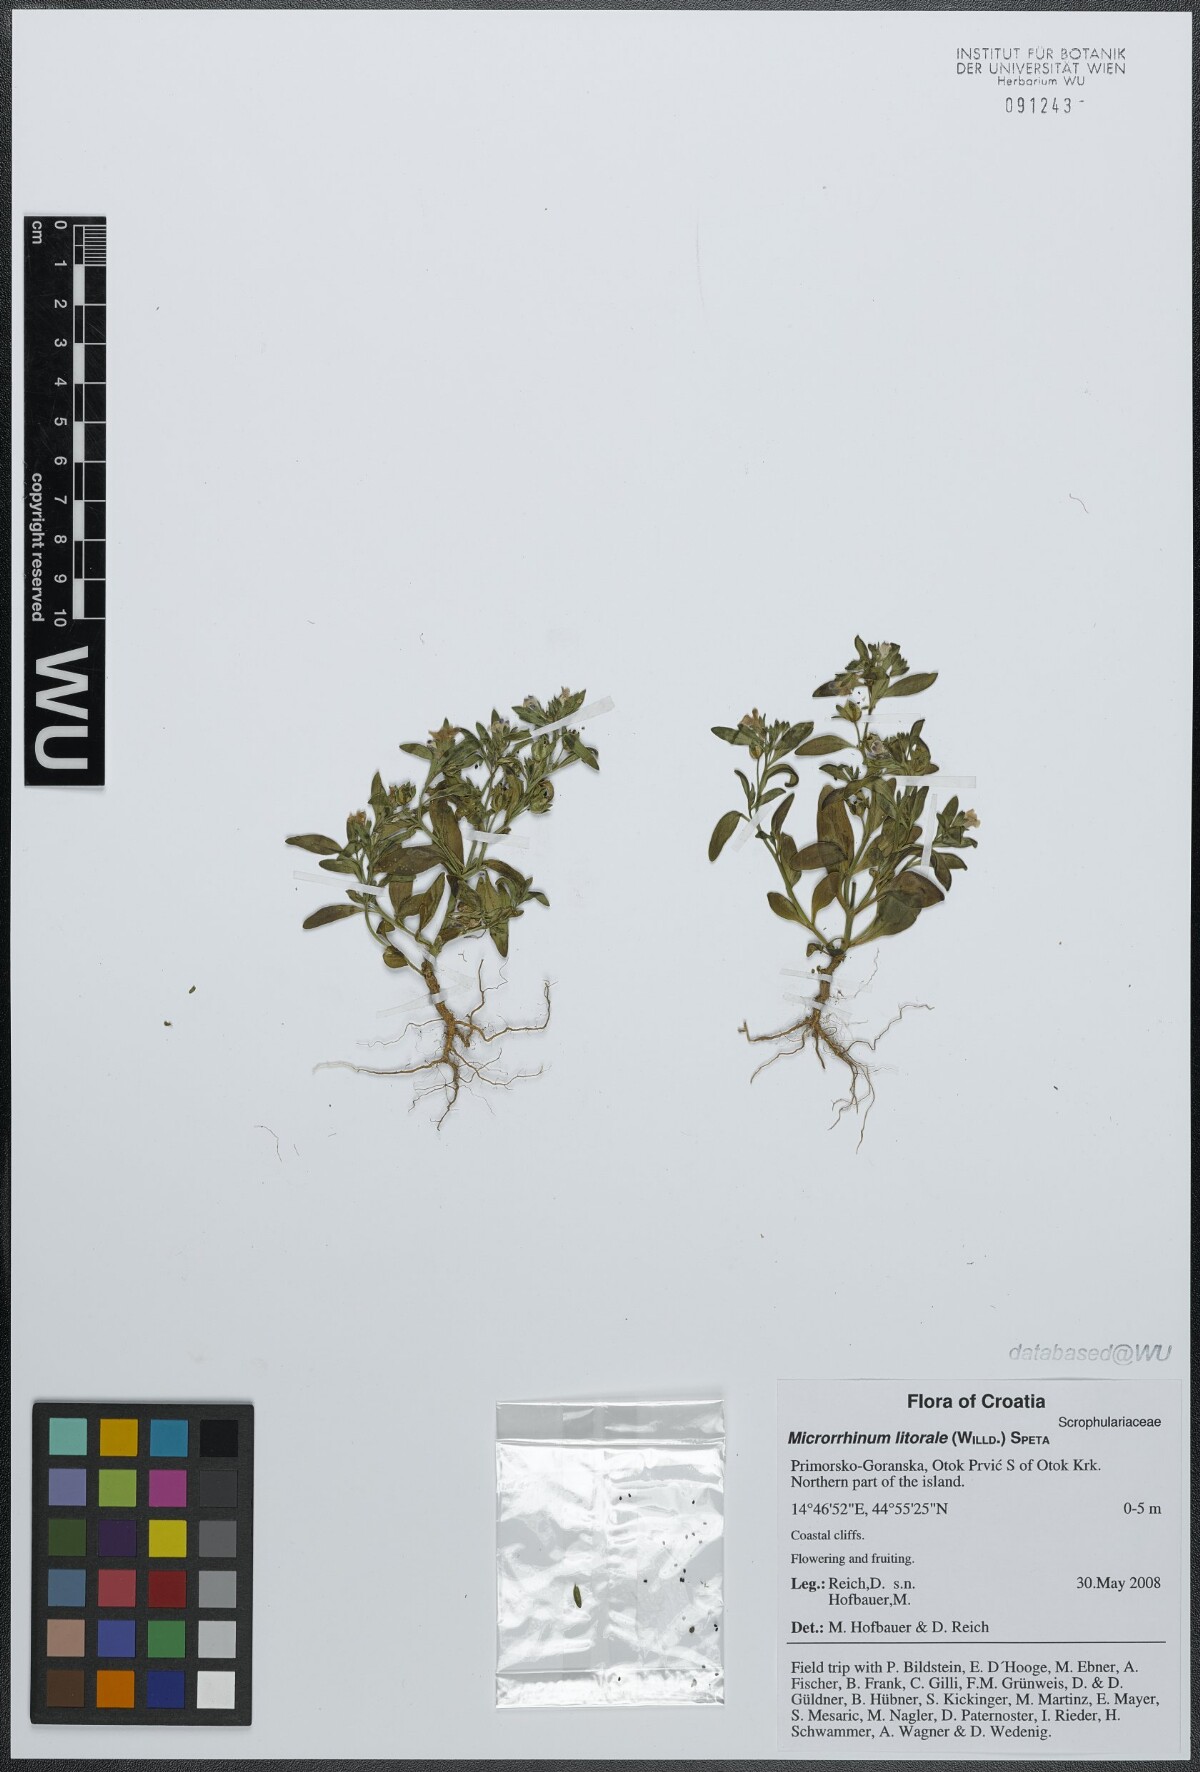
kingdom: Plantae
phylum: Tracheophyta
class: Magnoliopsida
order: Lamiales
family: Plantaginaceae
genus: Chaenorhinum
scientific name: Chaenorhinum litorale
